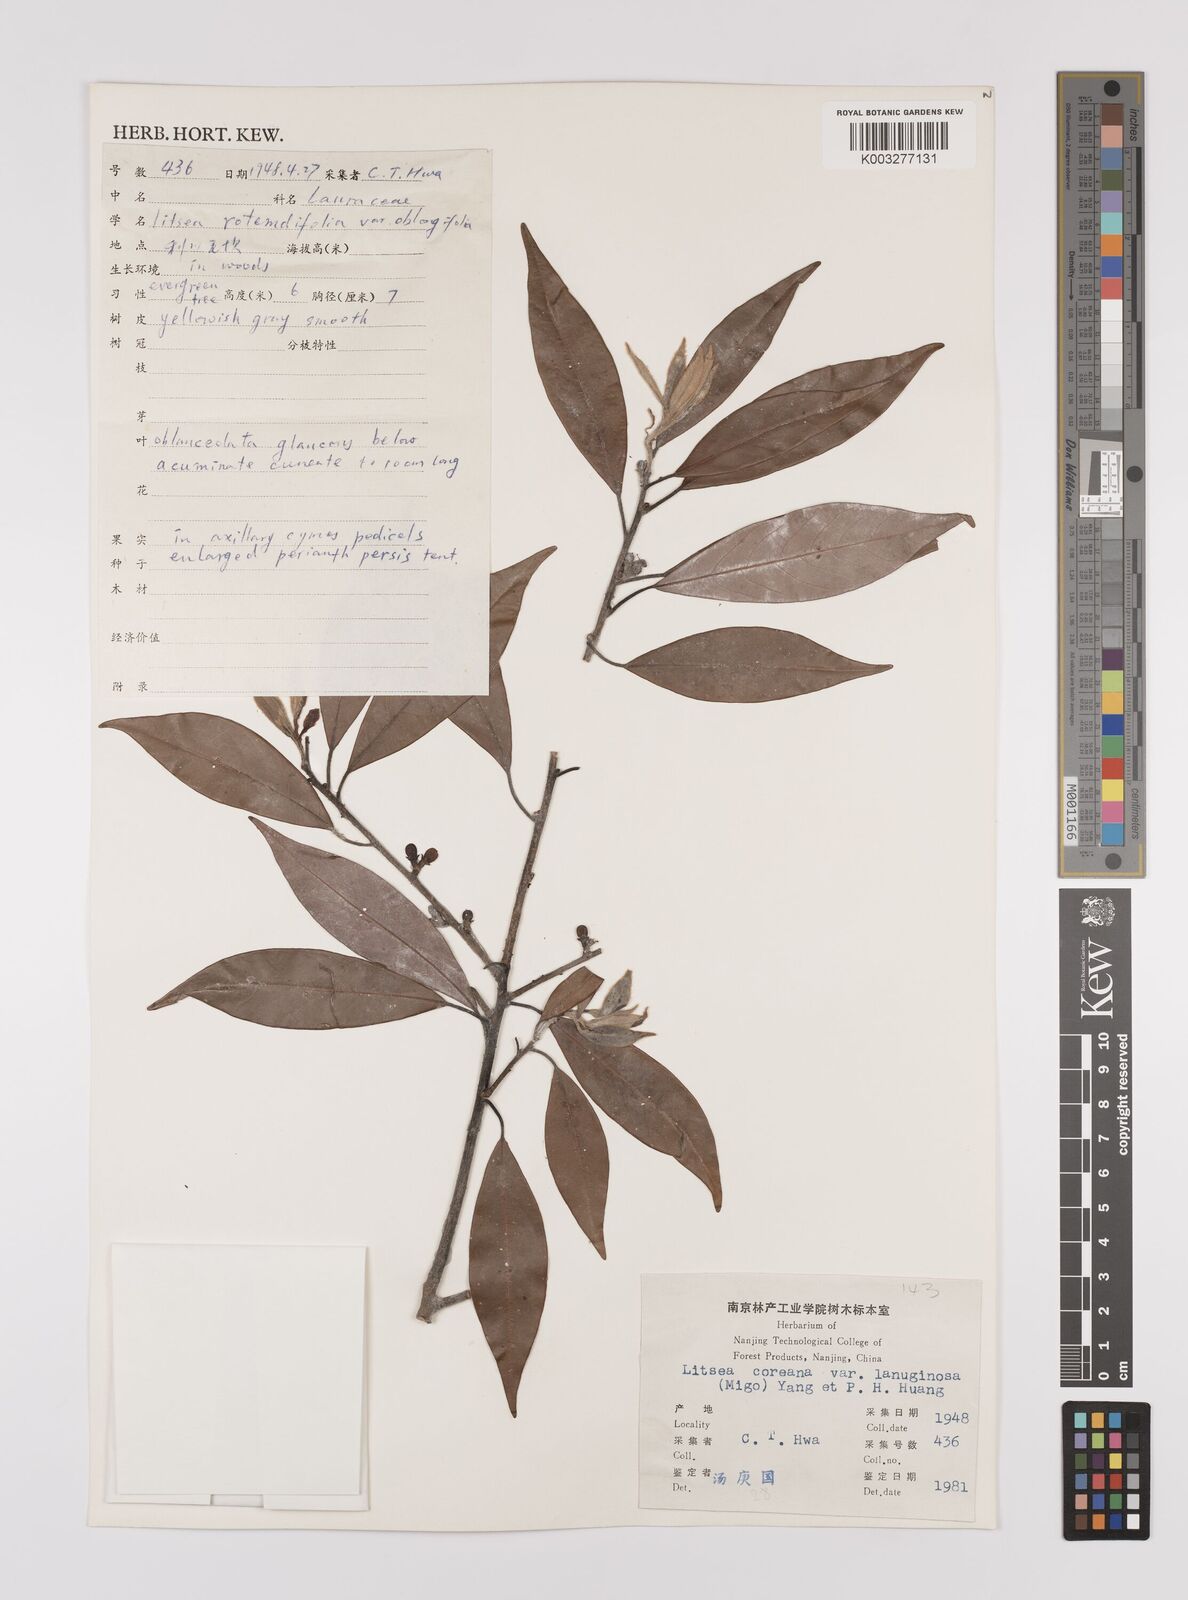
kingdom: Plantae
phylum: Tracheophyta
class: Magnoliopsida
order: Laurales
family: Lauraceae
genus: Litsea
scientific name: Litsea coreana
